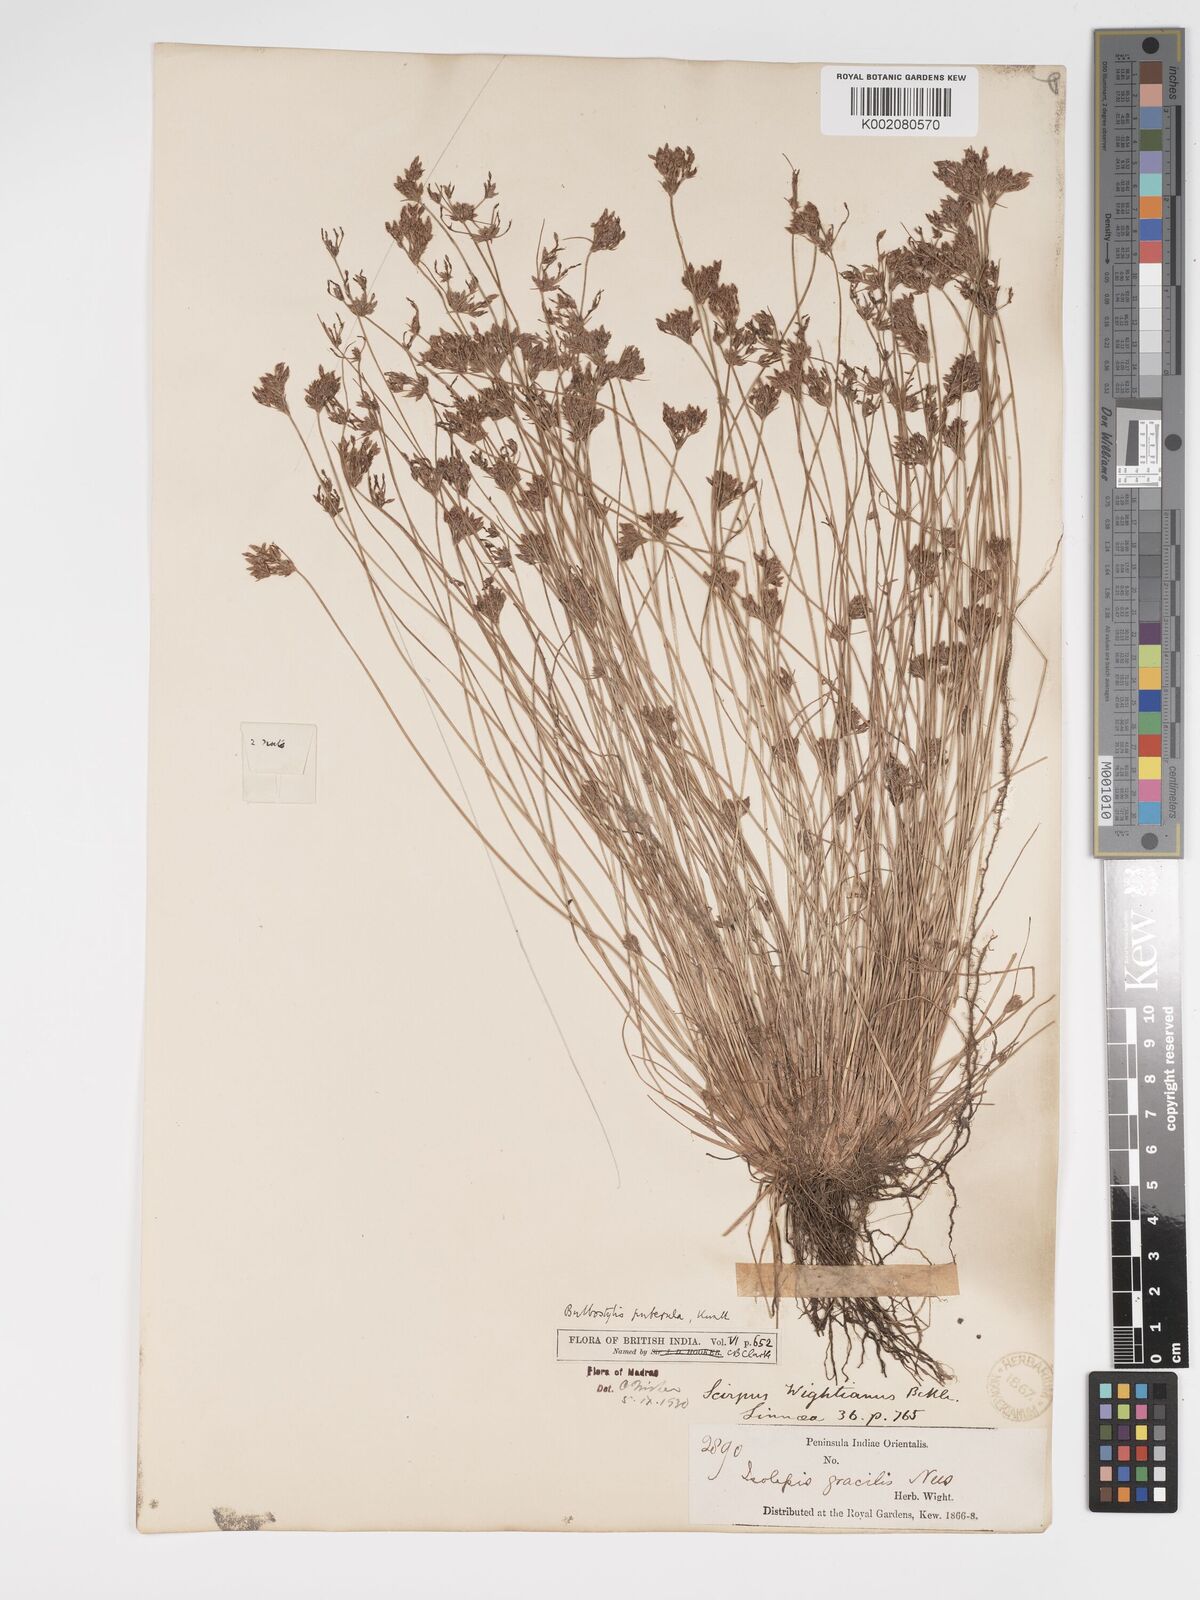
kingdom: Plantae
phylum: Tracheophyta
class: Liliopsida
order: Poales
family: Cyperaceae
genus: Bulbostylis
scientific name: Bulbostylis thouarsii
